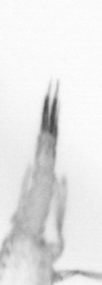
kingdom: Animalia
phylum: Arthropoda
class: Copepoda
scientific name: Copepoda
